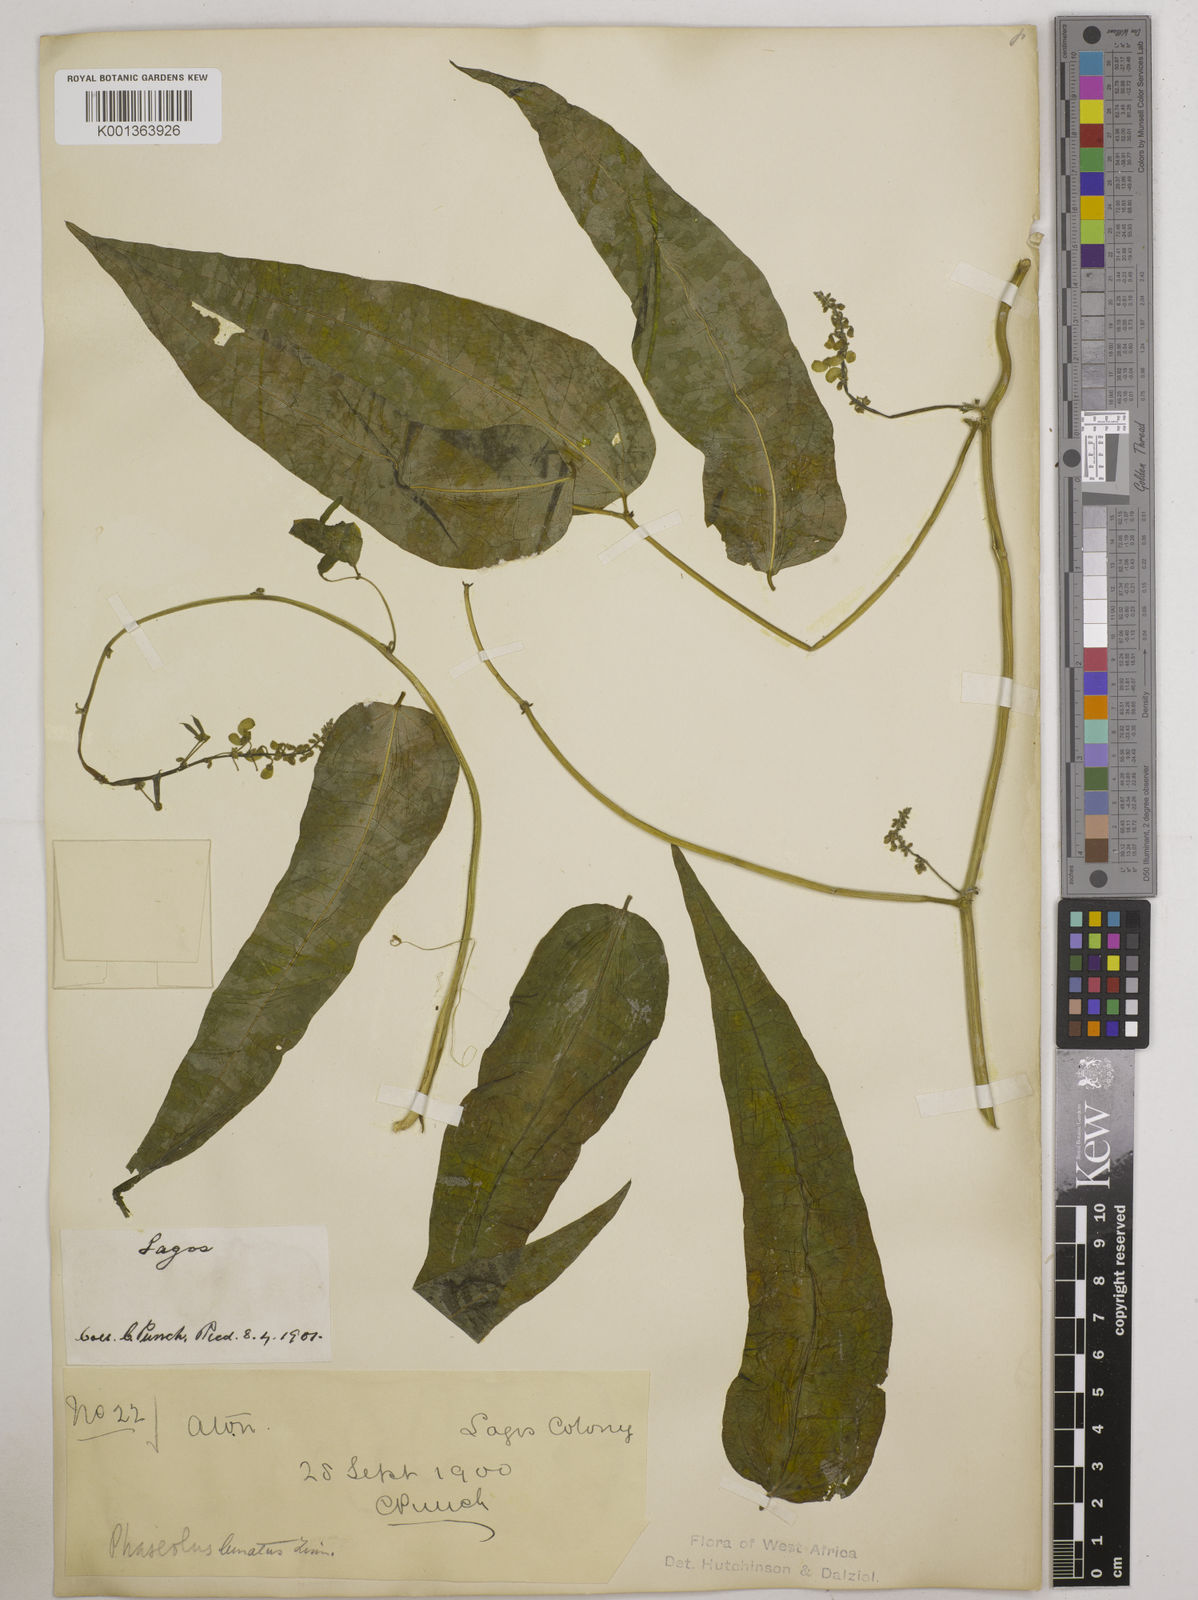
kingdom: Plantae
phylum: Tracheophyta
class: Magnoliopsida
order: Fabales
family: Fabaceae
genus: Phaseolus
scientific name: Phaseolus lunatus
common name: Sieva bean
